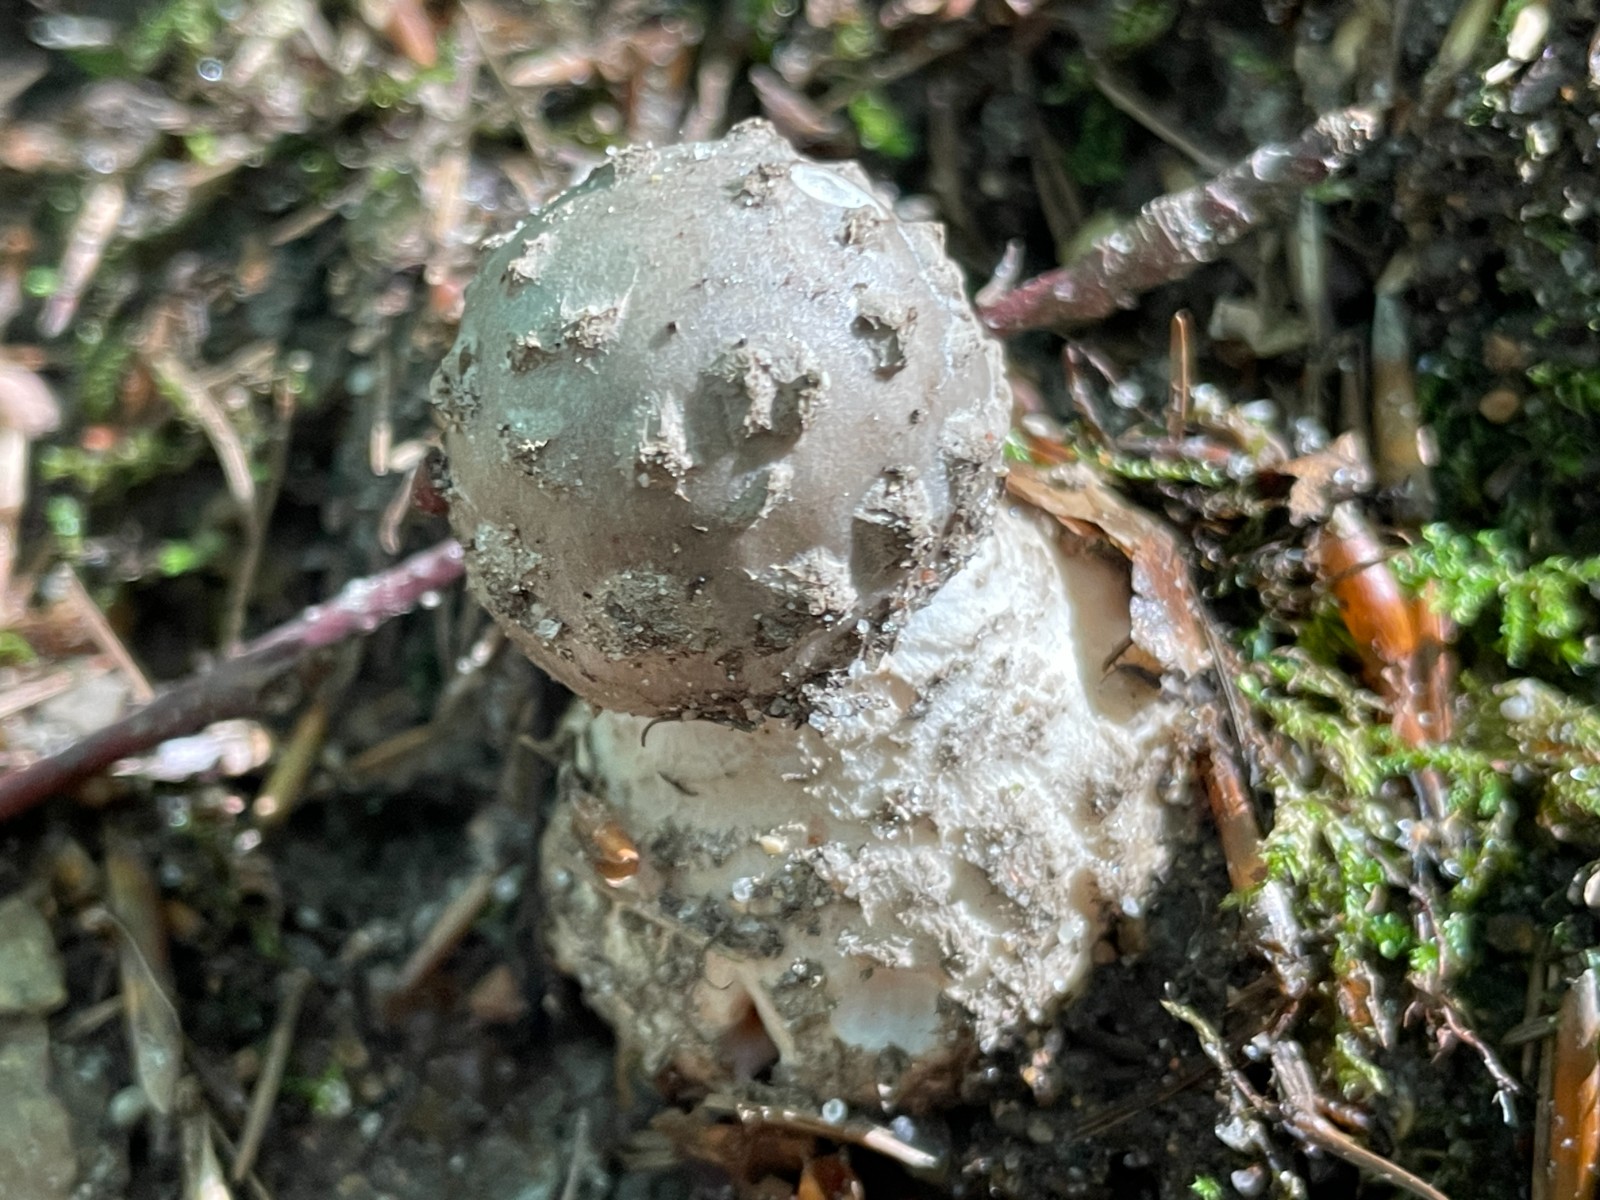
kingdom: Fungi
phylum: Basidiomycota
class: Agaricomycetes
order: Agaricales
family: Amanitaceae
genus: Amanita
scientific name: Amanita pantherina
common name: panter-fluesvamp
